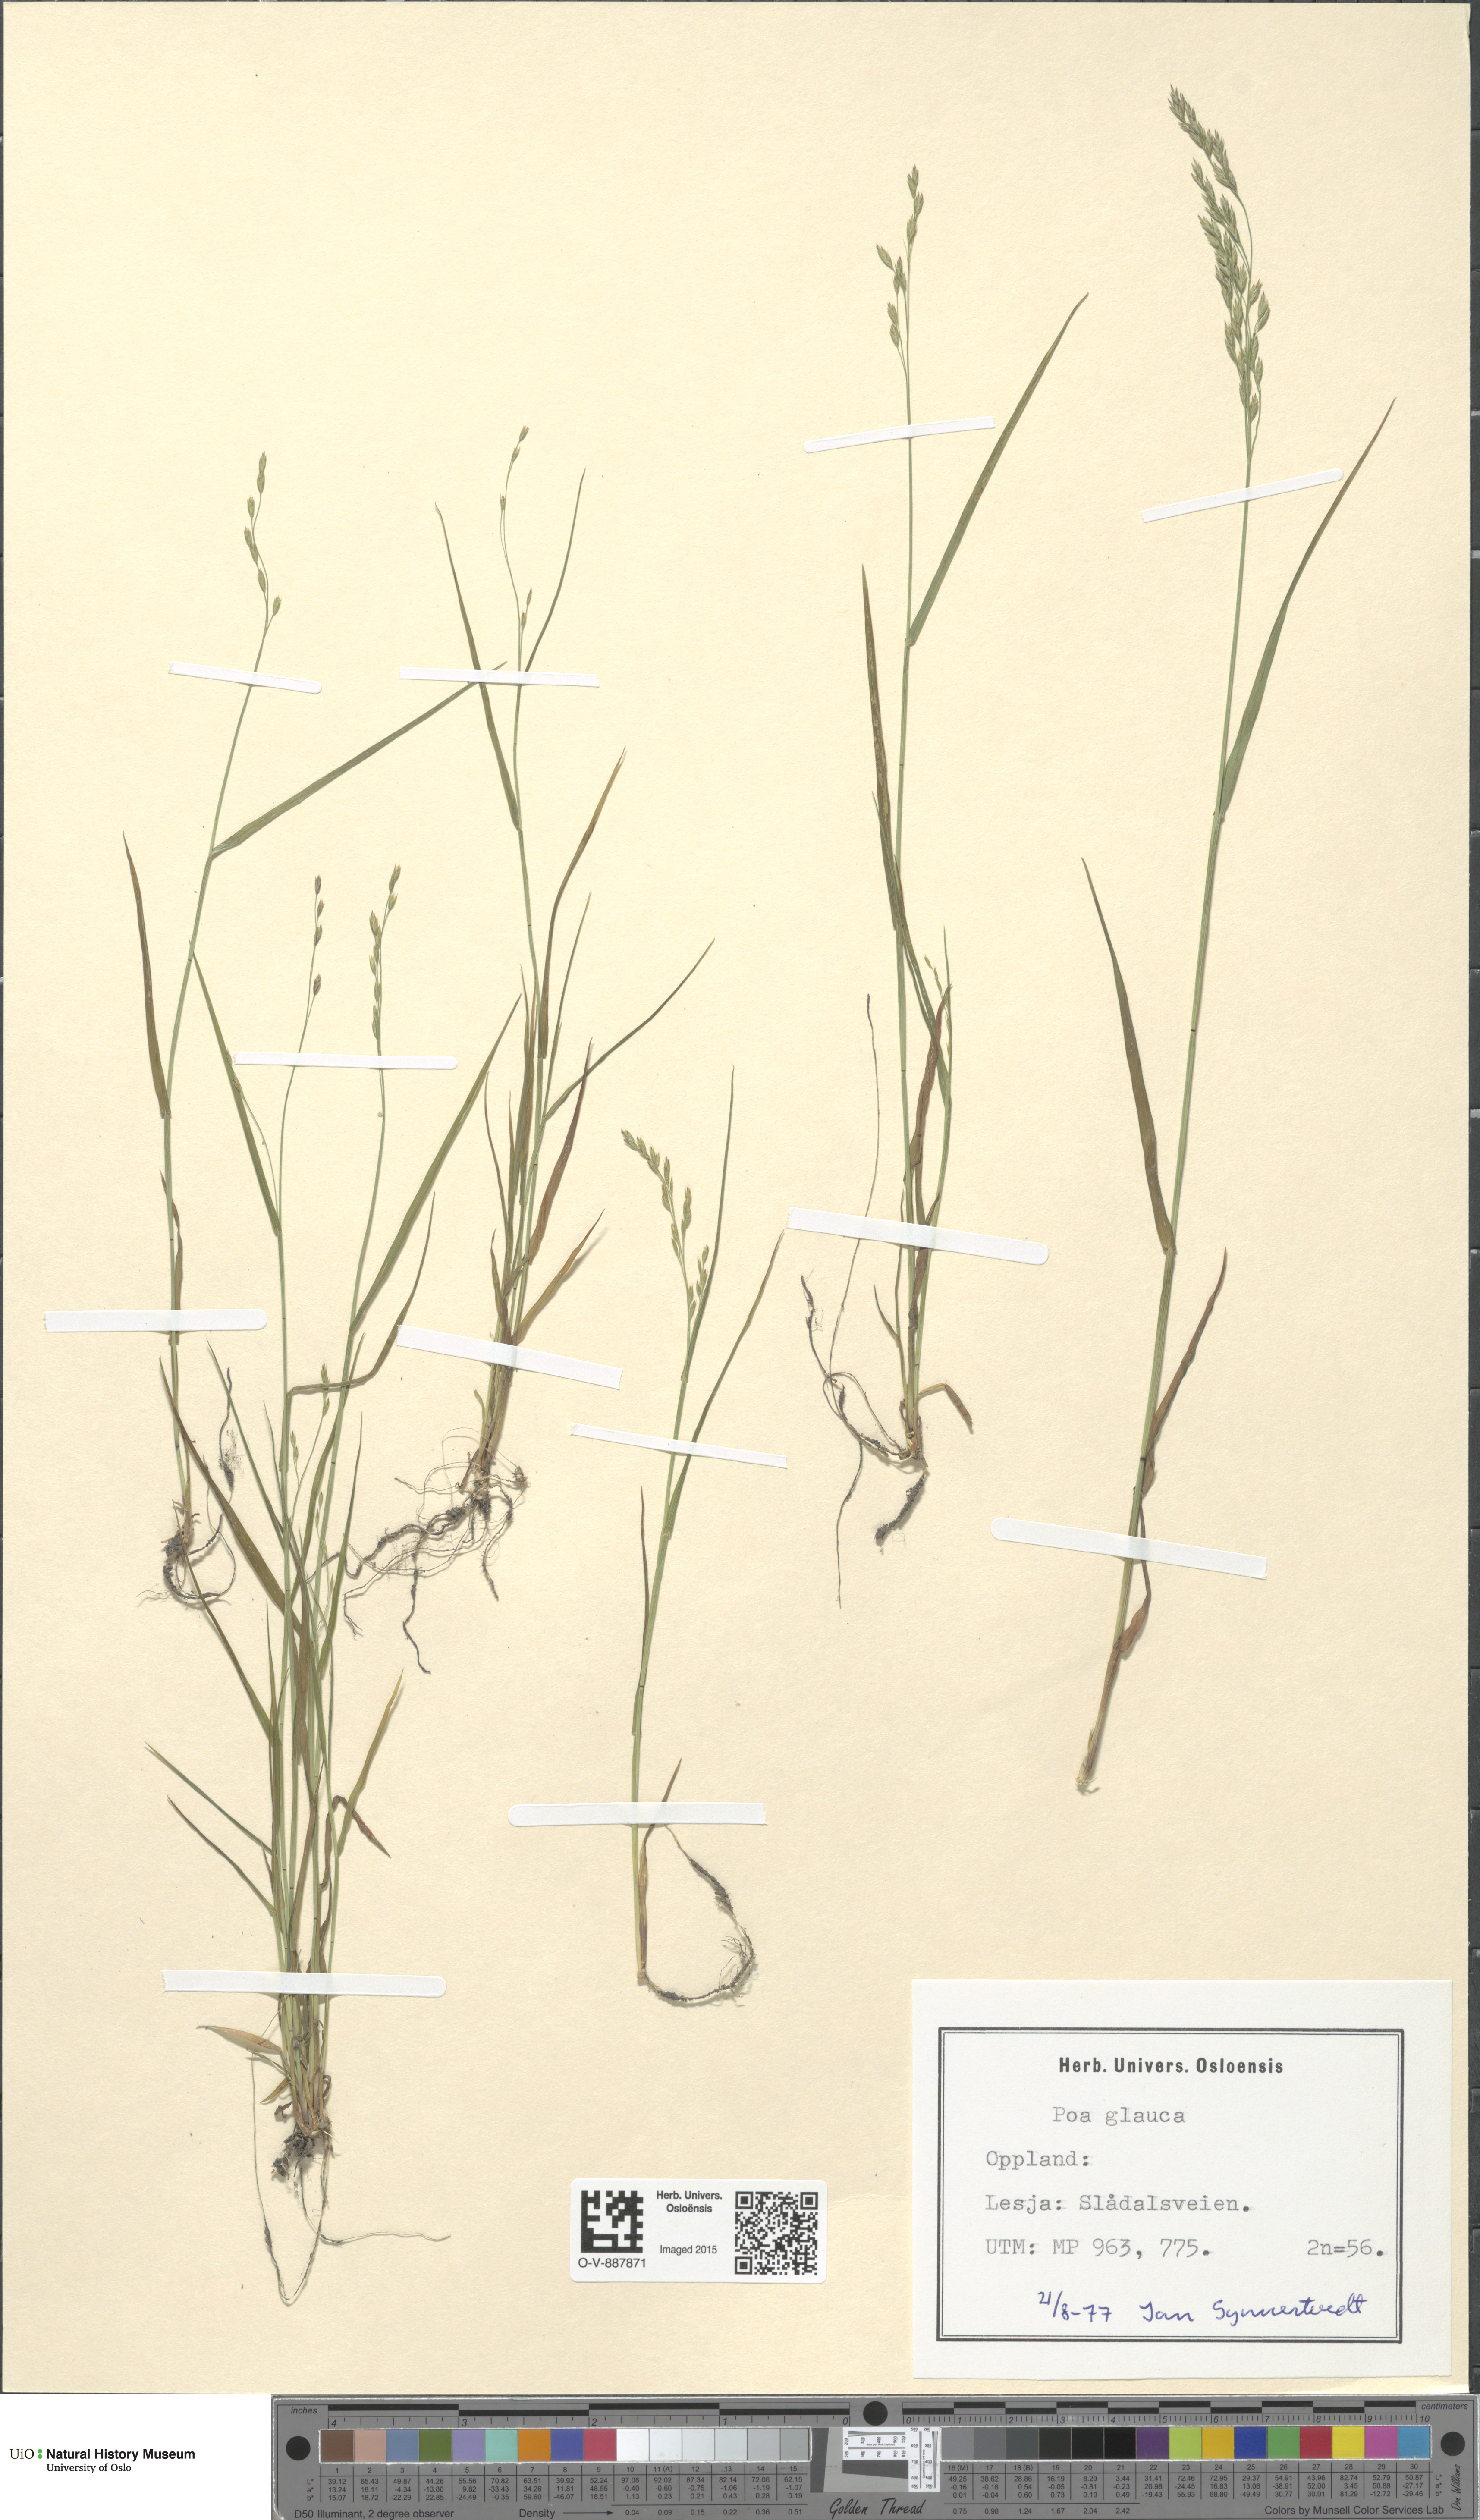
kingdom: Plantae
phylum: Tracheophyta
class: Liliopsida
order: Poales
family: Poaceae
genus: Poa
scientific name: Poa glauca
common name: Glaucous bluegrass
